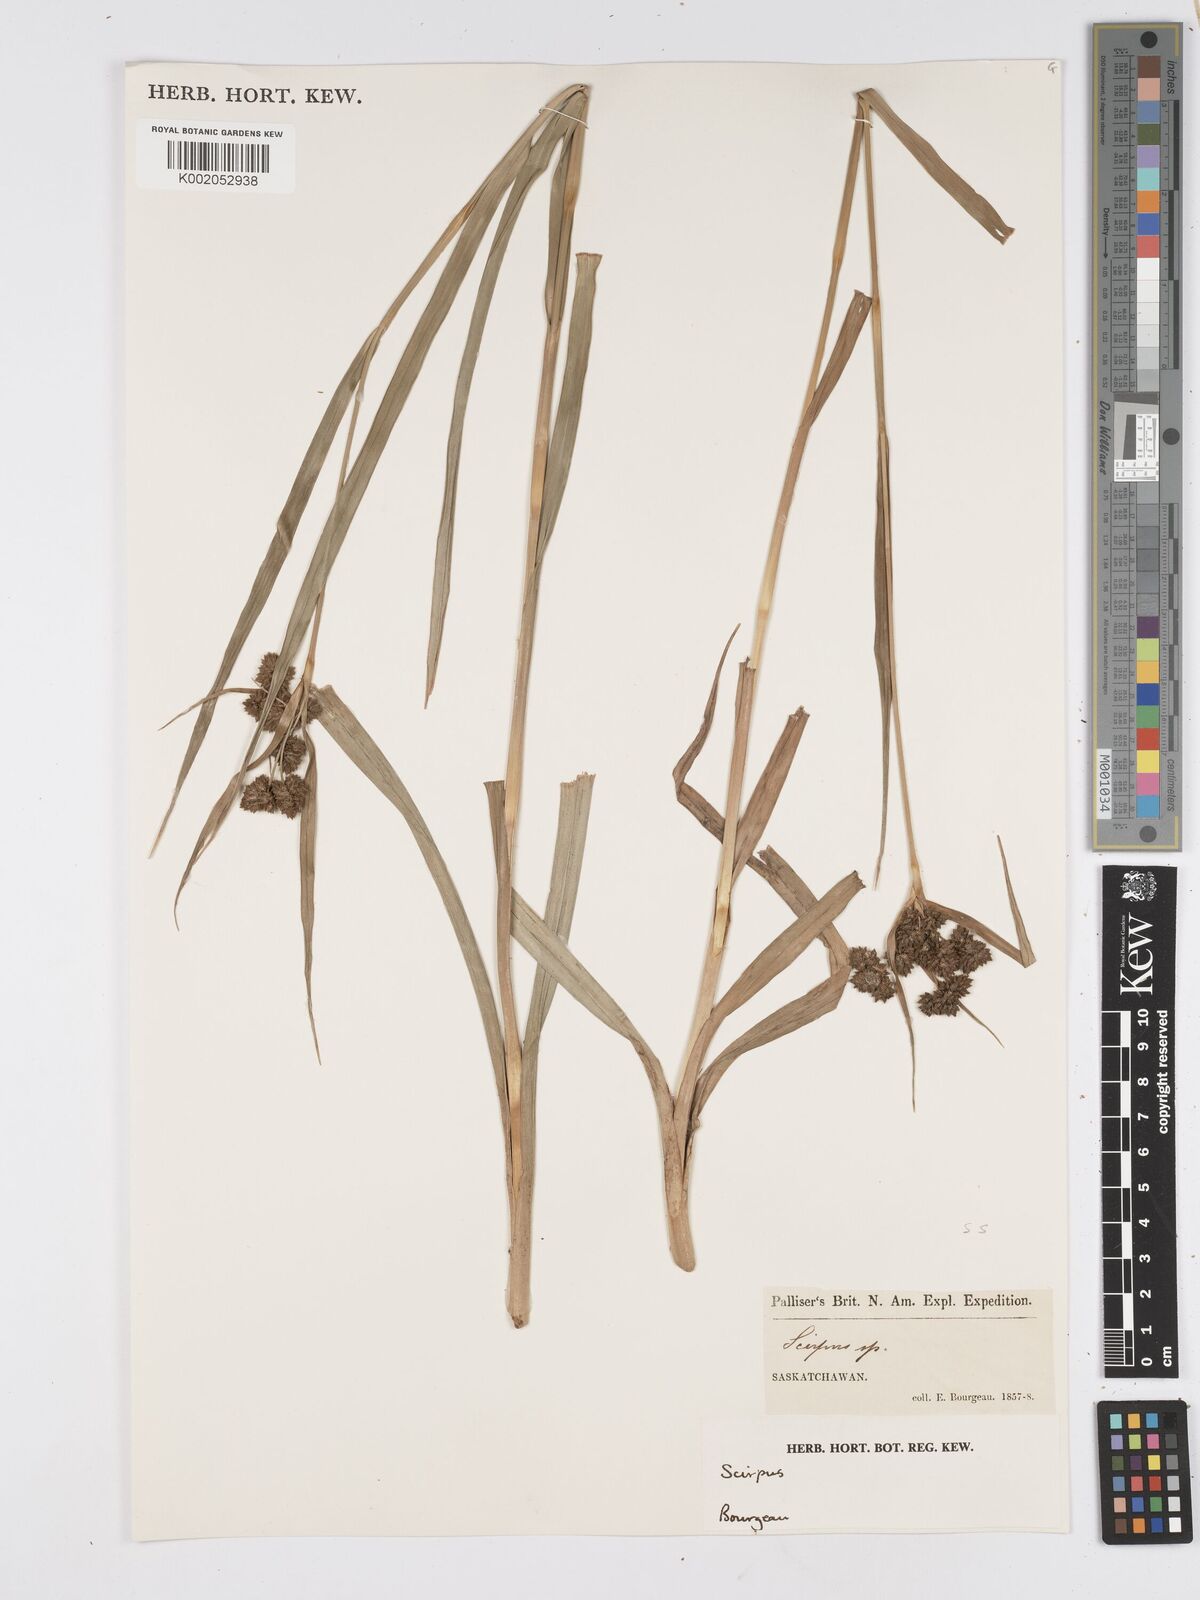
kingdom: Plantae
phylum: Tracheophyta
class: Liliopsida
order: Poales
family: Cyperaceae
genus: Scirpus
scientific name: Scirpus
